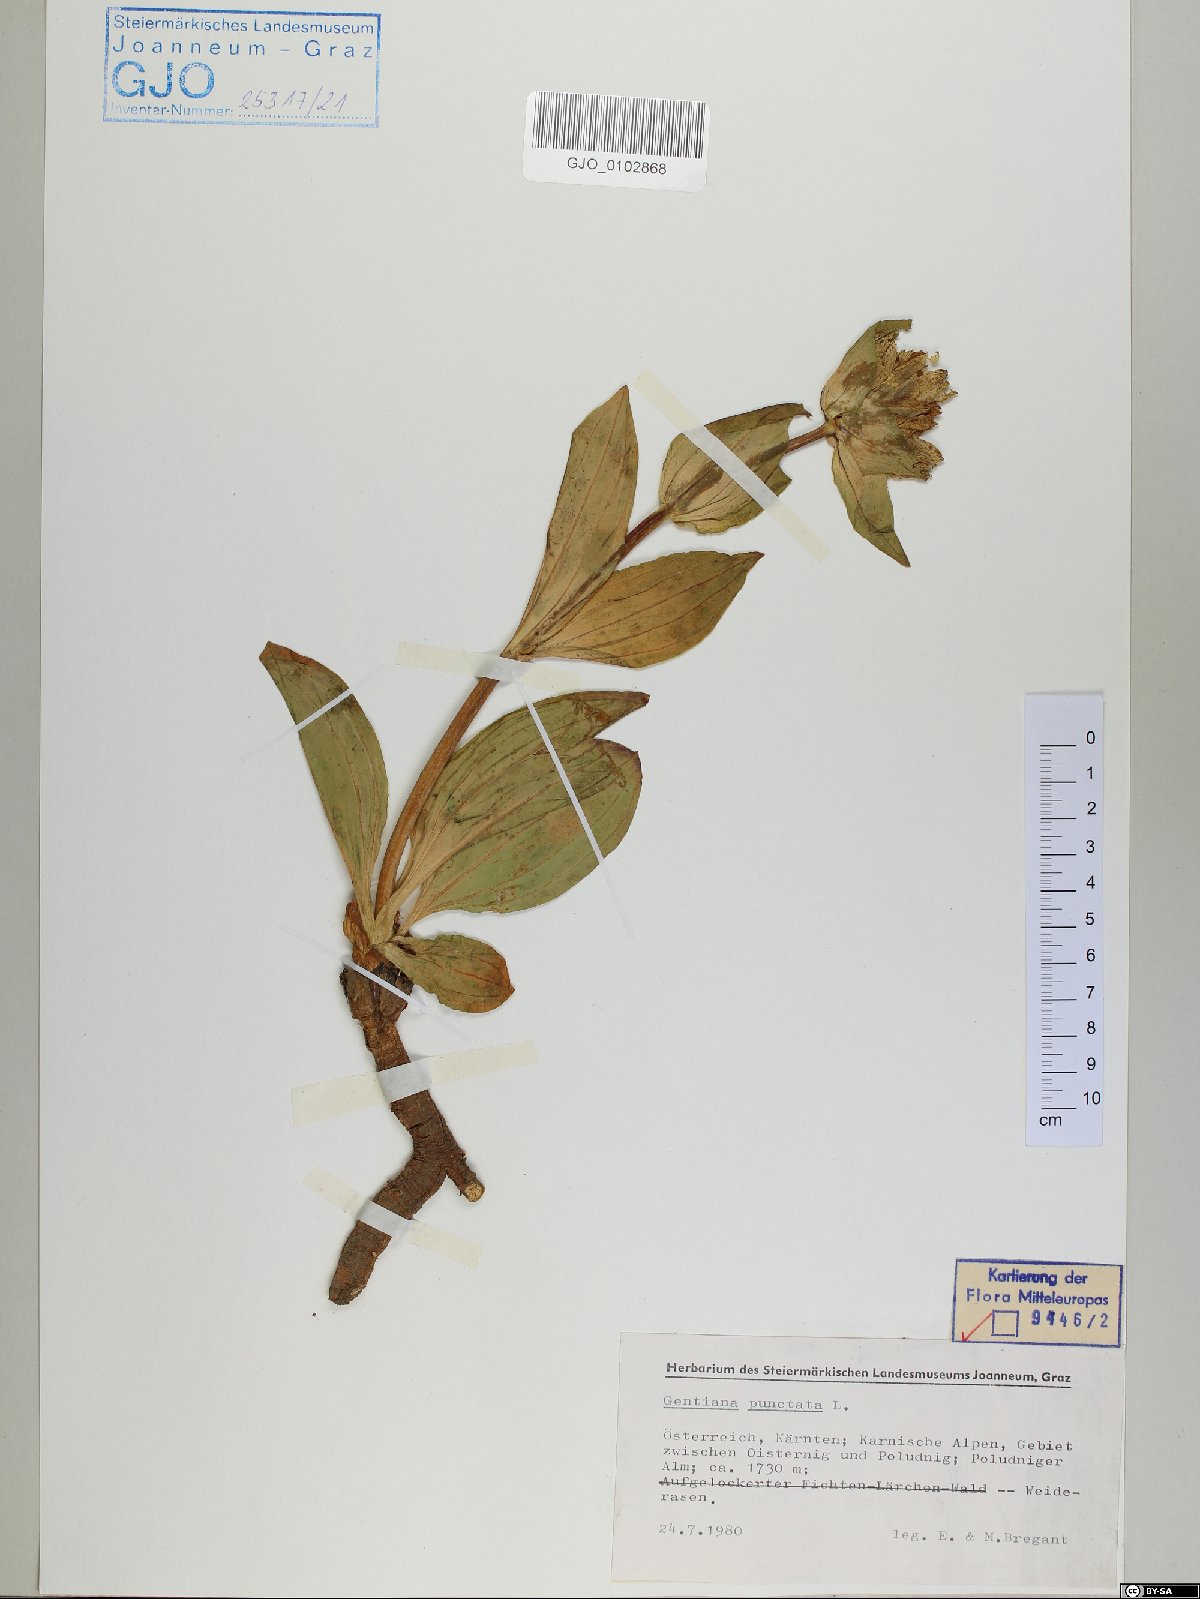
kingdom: Plantae
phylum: Tracheophyta
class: Magnoliopsida
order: Gentianales
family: Gentianaceae
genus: Gentiana
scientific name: Gentiana punctata
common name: Spotted gentian
